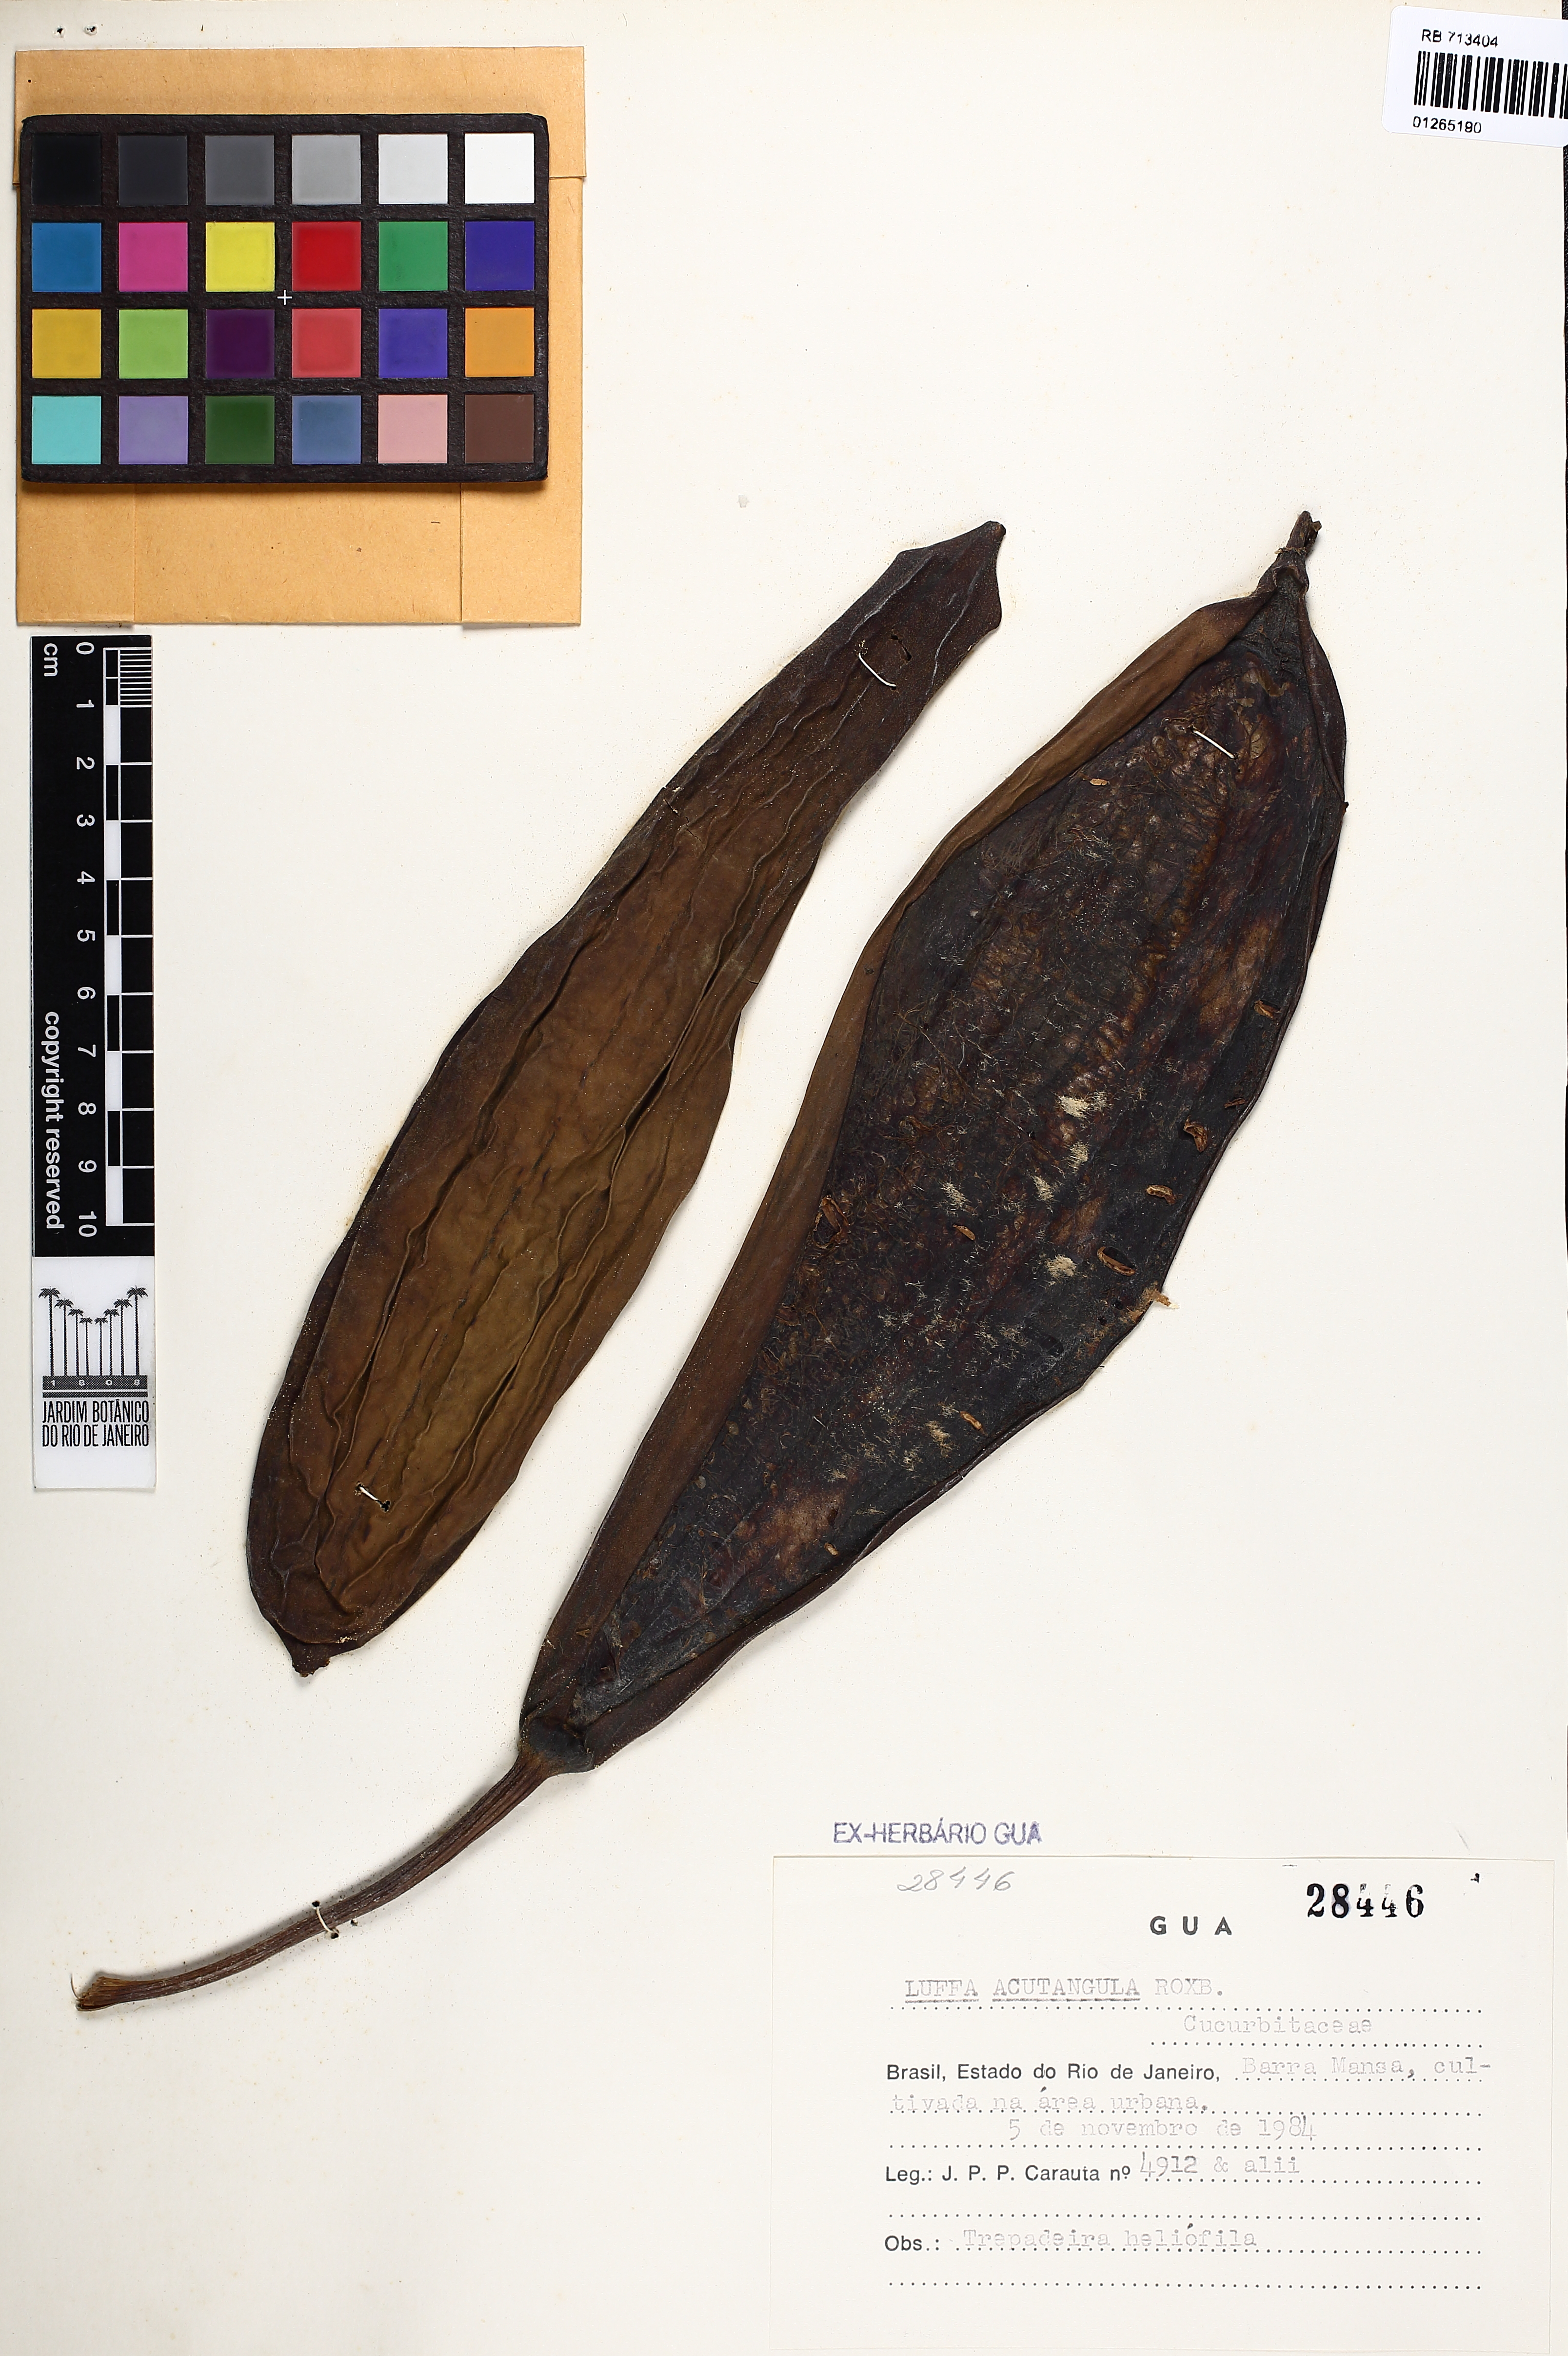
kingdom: Plantae
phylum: Tracheophyta
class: Magnoliopsida
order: Cucurbitales
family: Cucurbitaceae
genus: Luffa
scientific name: Luffa acutangula
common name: Sinkwa towelsponge
